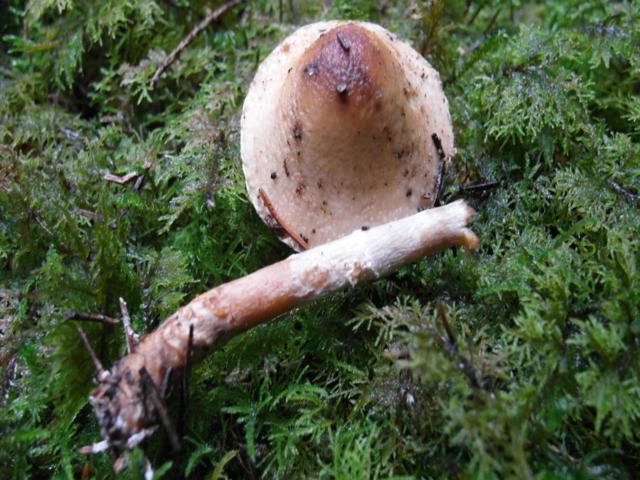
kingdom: Fungi
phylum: Basidiomycota
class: Agaricomycetes
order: Agaricales
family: Agaricaceae
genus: Lepiota
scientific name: Lepiota magnispora
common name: gulfnugget parasolhat
